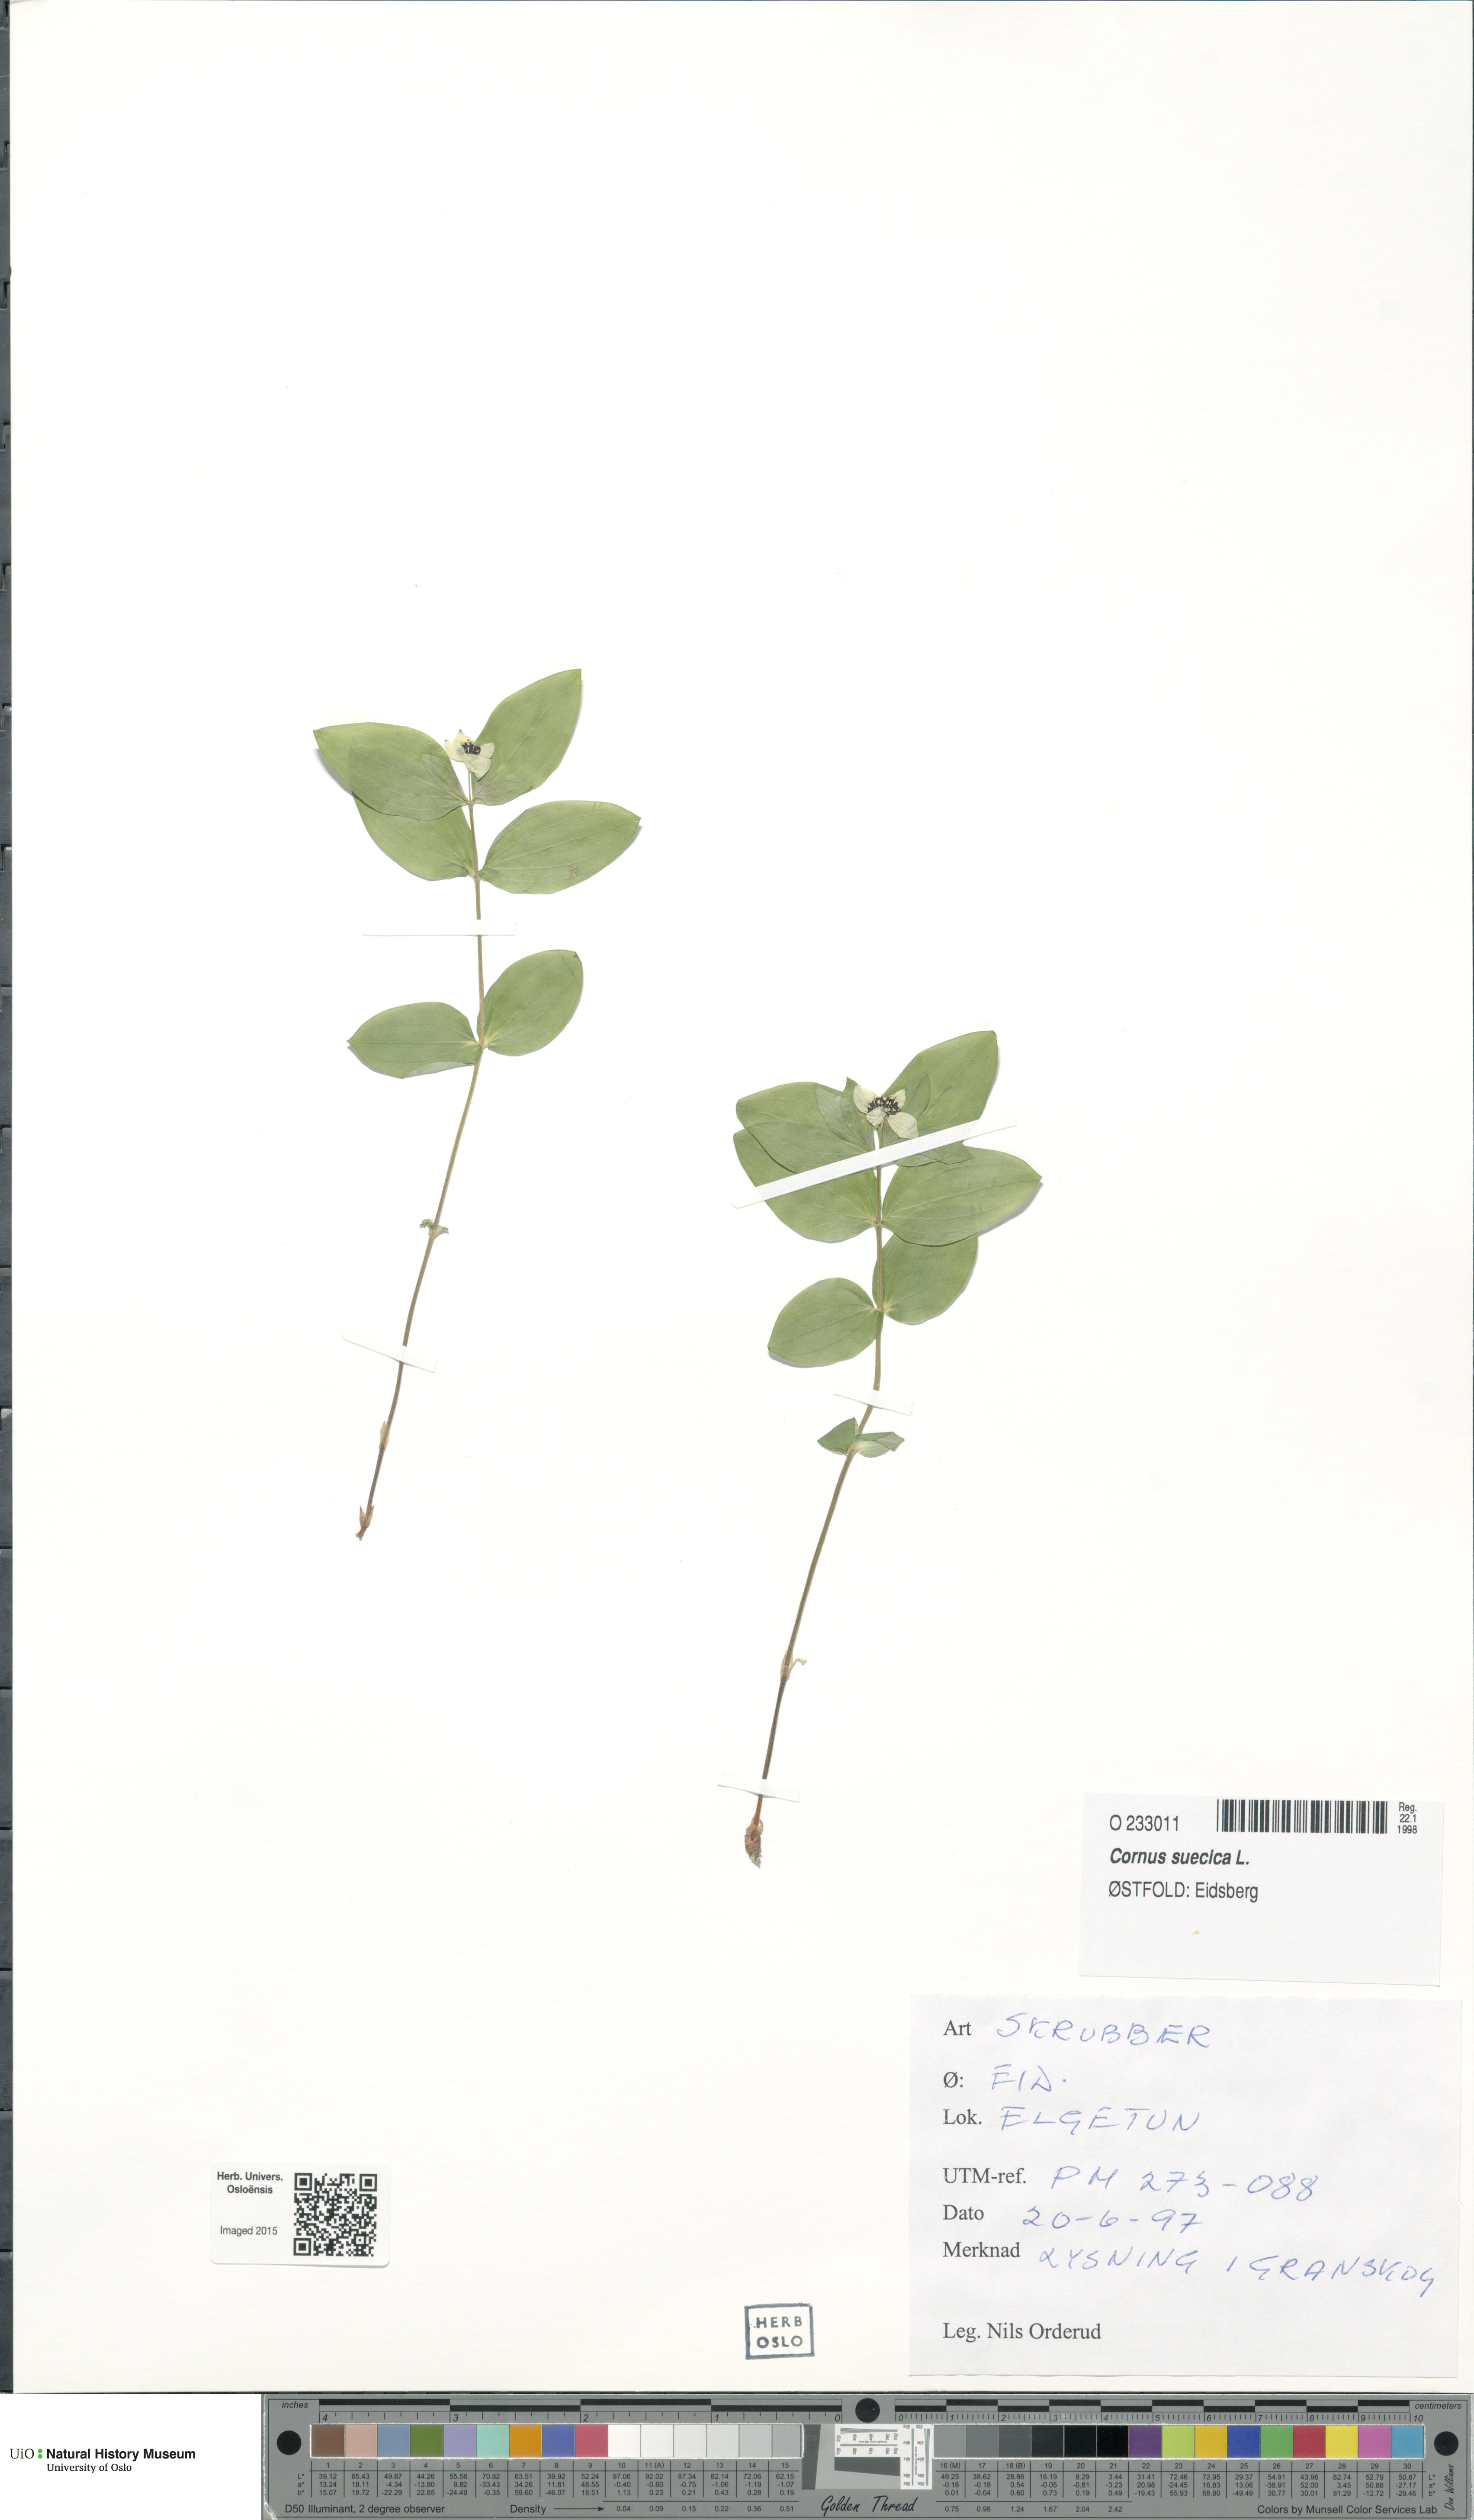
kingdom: Plantae
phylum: Tracheophyta
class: Magnoliopsida
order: Cornales
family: Cornaceae
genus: Cornus
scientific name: Cornus suecica
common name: Dwarf cornel
